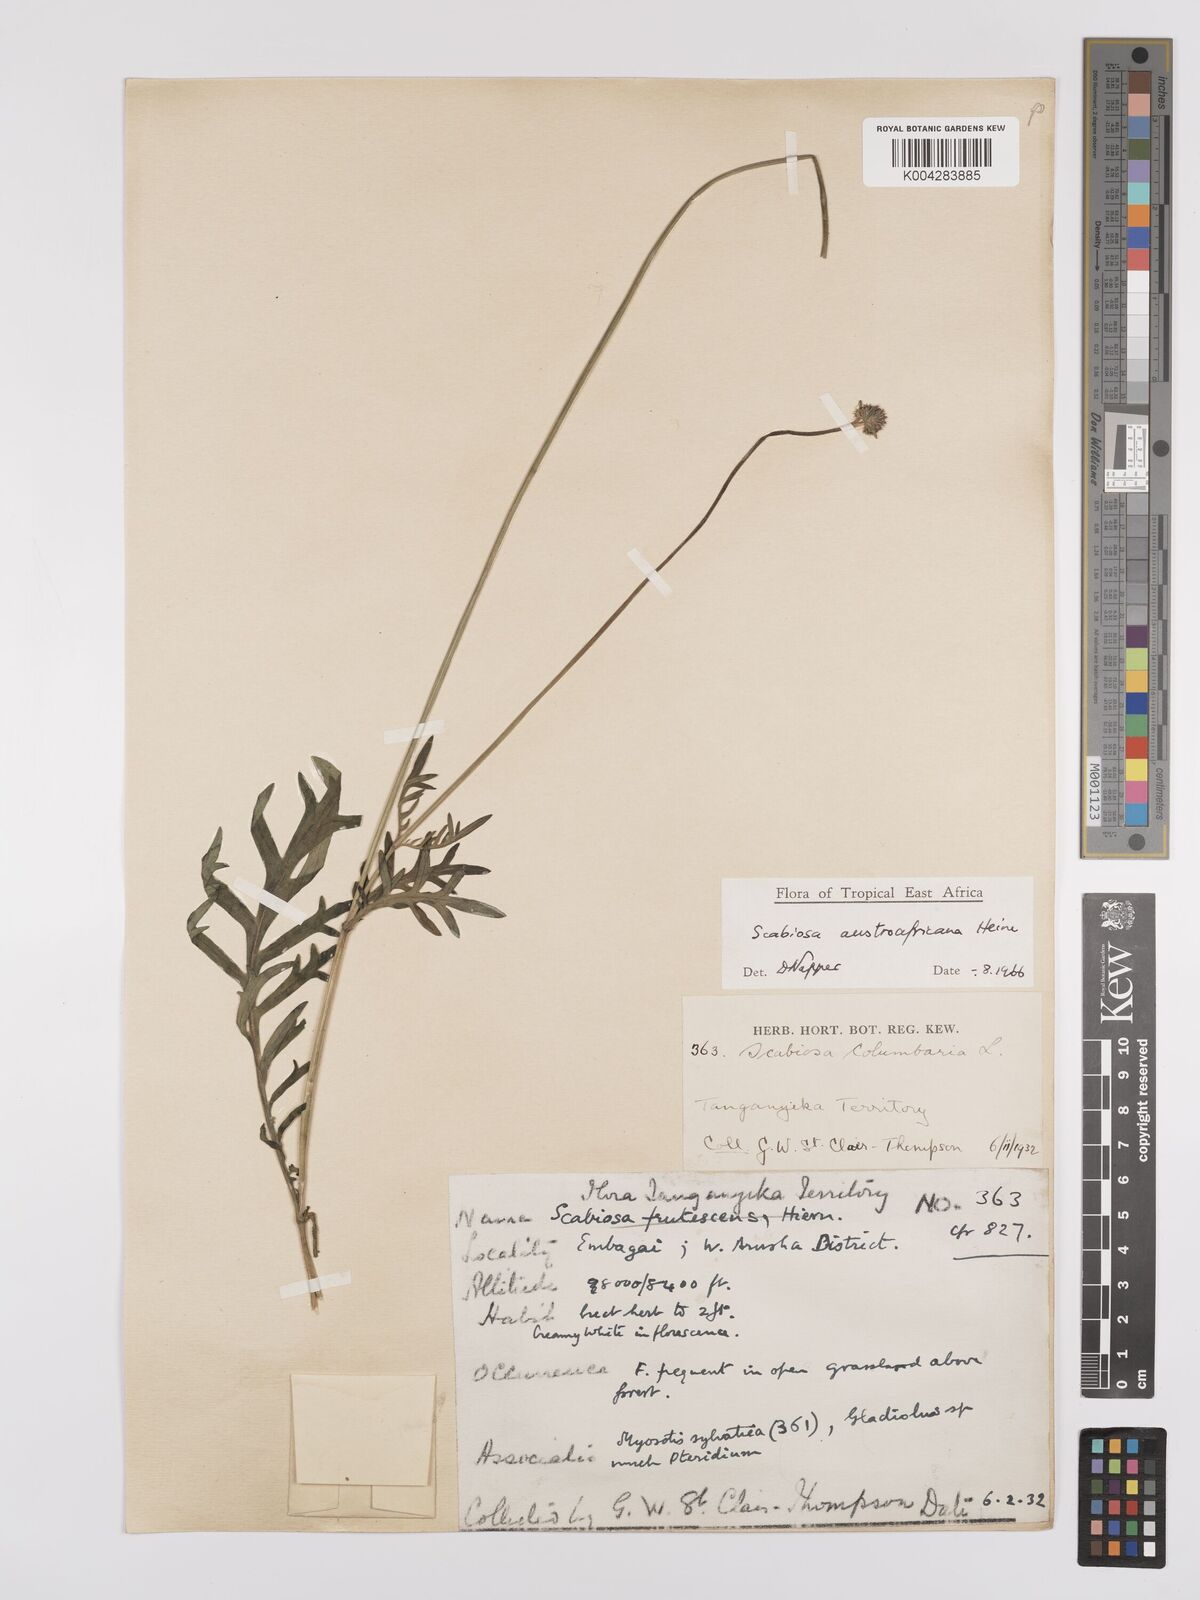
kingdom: Plantae
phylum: Tracheophyta
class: Magnoliopsida
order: Dipsacales
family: Caprifoliaceae
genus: Scabiosa
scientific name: Scabiosa austroafricana
